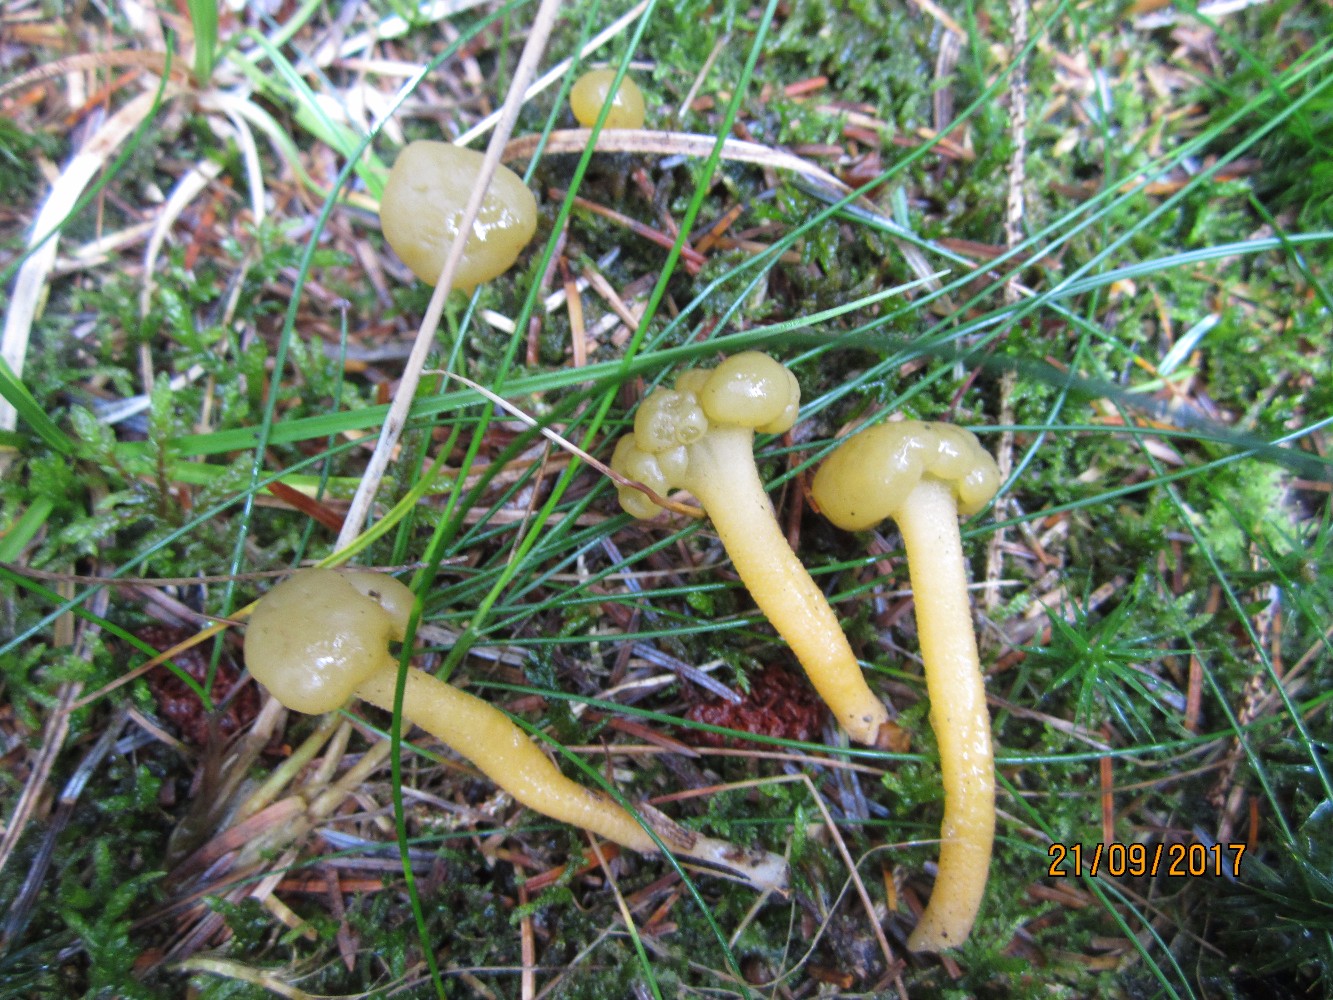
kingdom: Fungi
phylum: Ascomycota
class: Leotiomycetes
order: Leotiales
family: Leotiaceae
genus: Leotia
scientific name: Leotia lubrica
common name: ravsvamp
